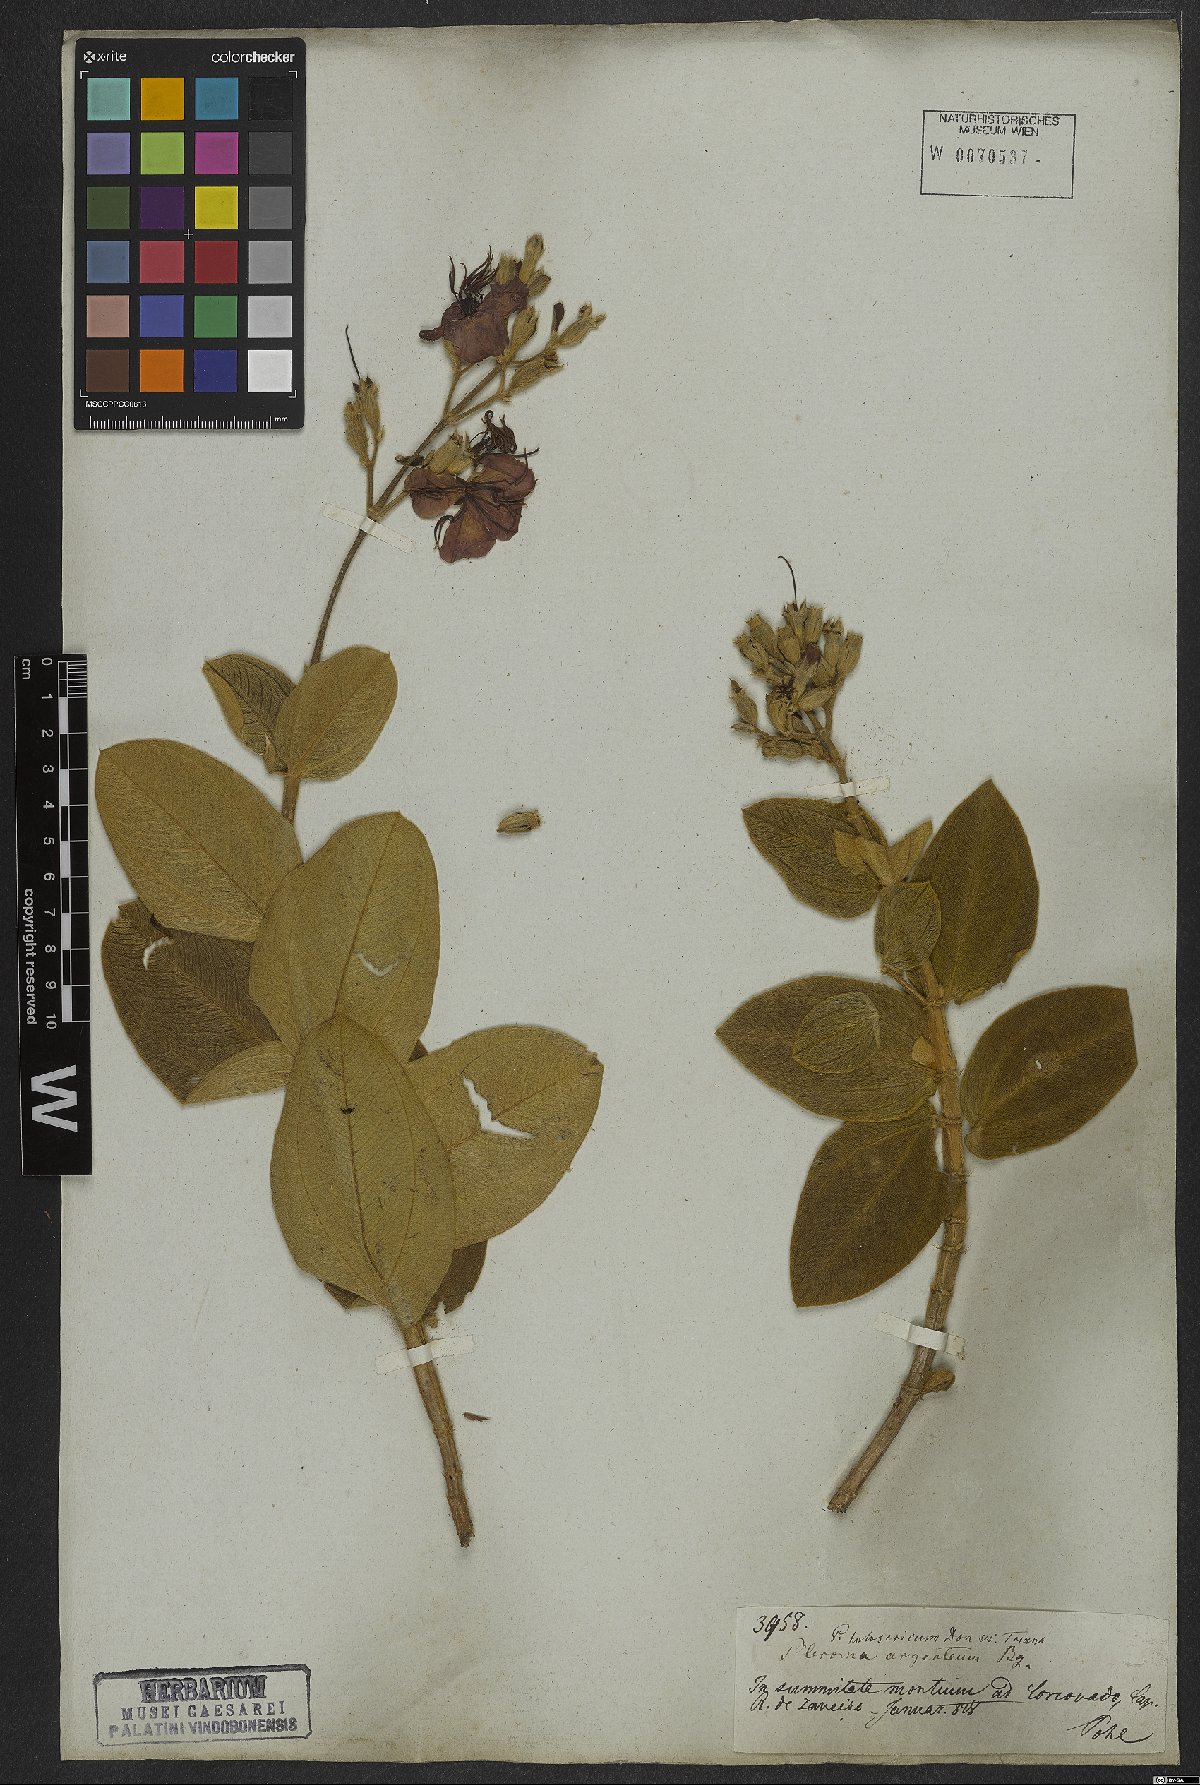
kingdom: Plantae
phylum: Tracheophyta
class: Magnoliopsida
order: Myrtales
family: Melastomataceae
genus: Pleroma
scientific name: Pleroma clavatum
